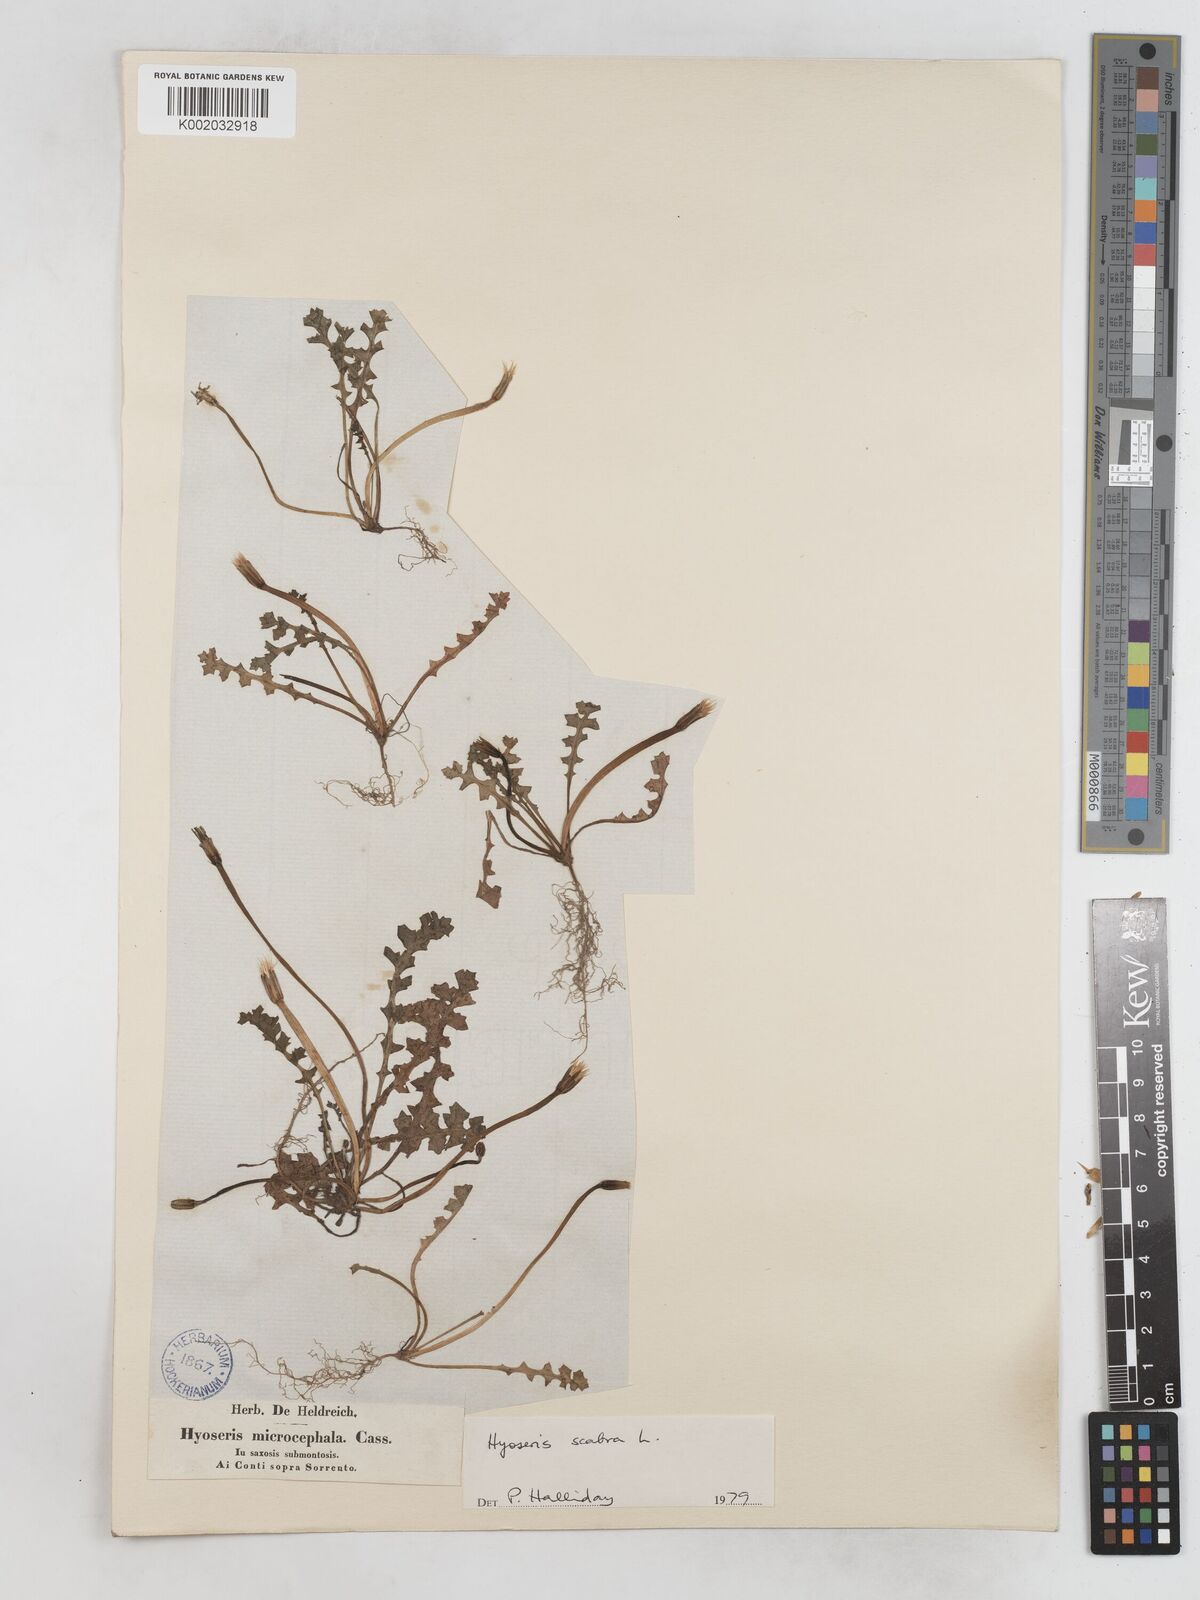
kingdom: Plantae
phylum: Tracheophyta
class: Magnoliopsida
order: Asterales
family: Asteraceae
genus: Hyoseris
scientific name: Hyoseris scabra
